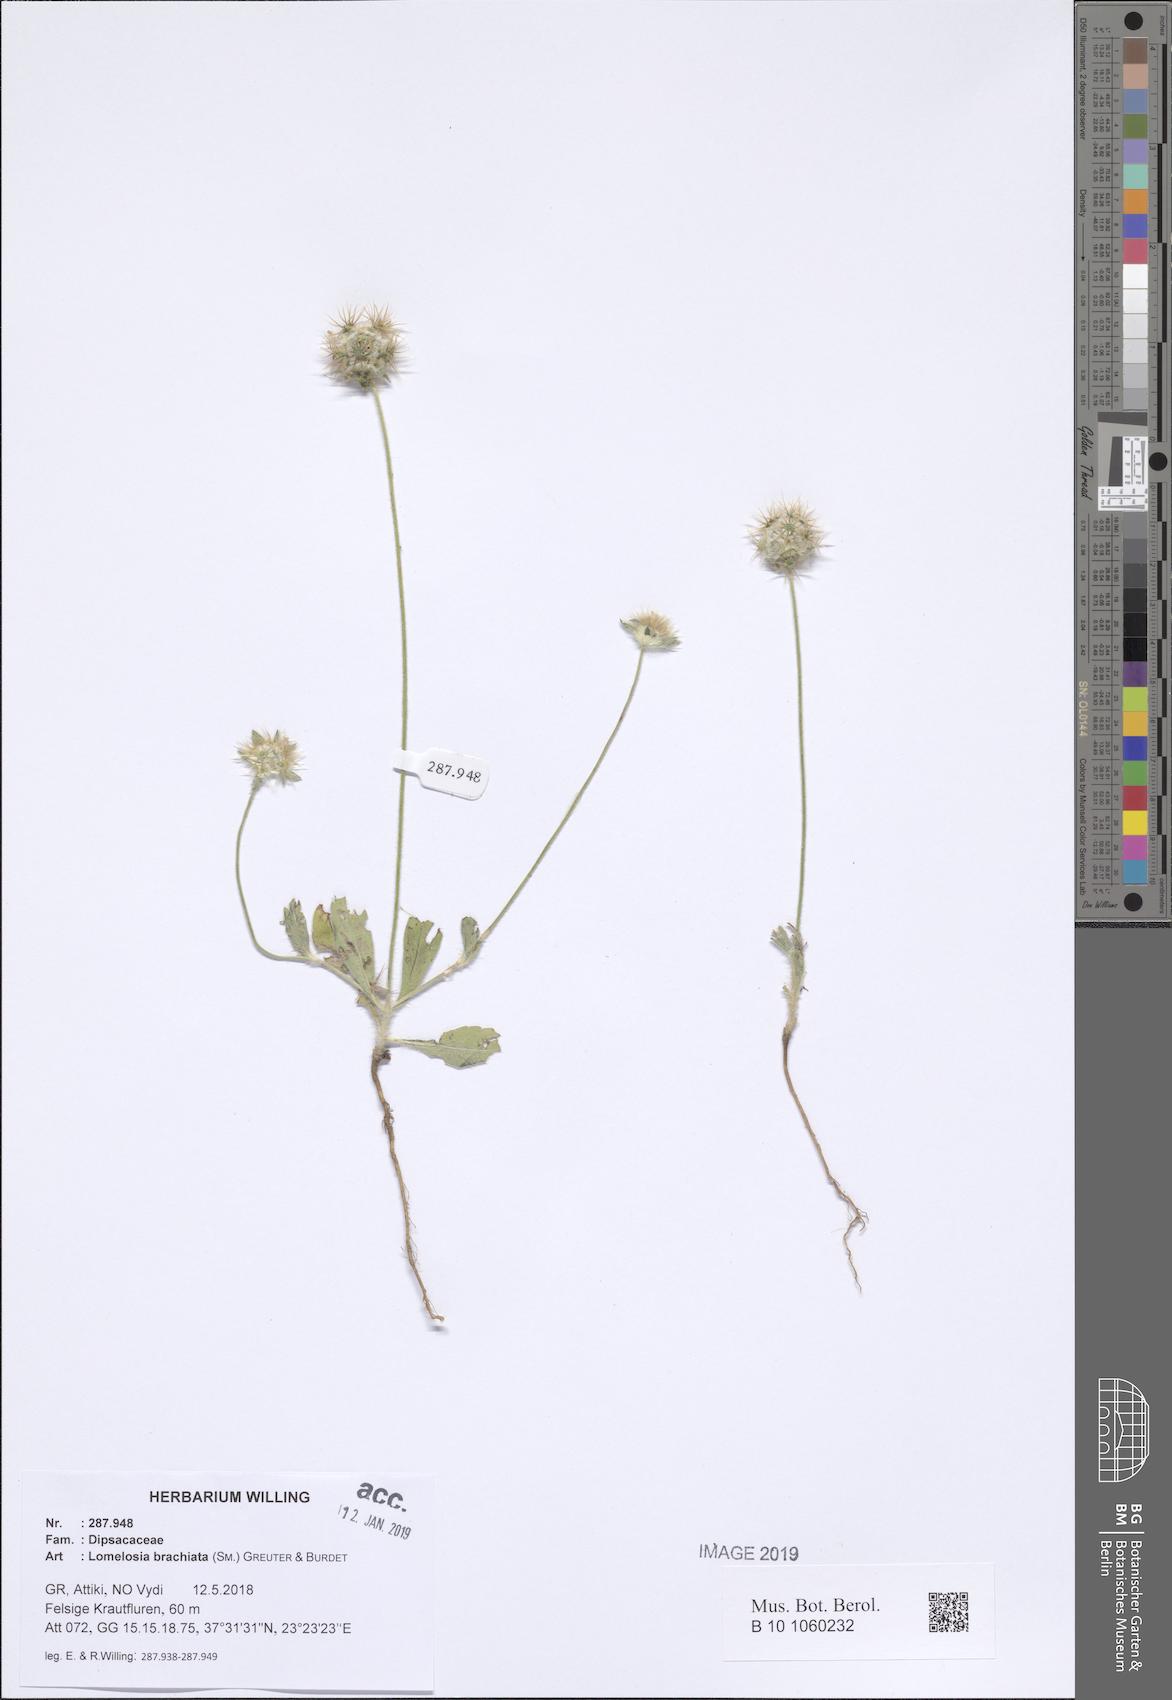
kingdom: Plantae
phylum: Tracheophyta
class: Magnoliopsida
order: Dipsacales
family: Caprifoliaceae
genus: Lomelosia
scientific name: Lomelosia brachiata
